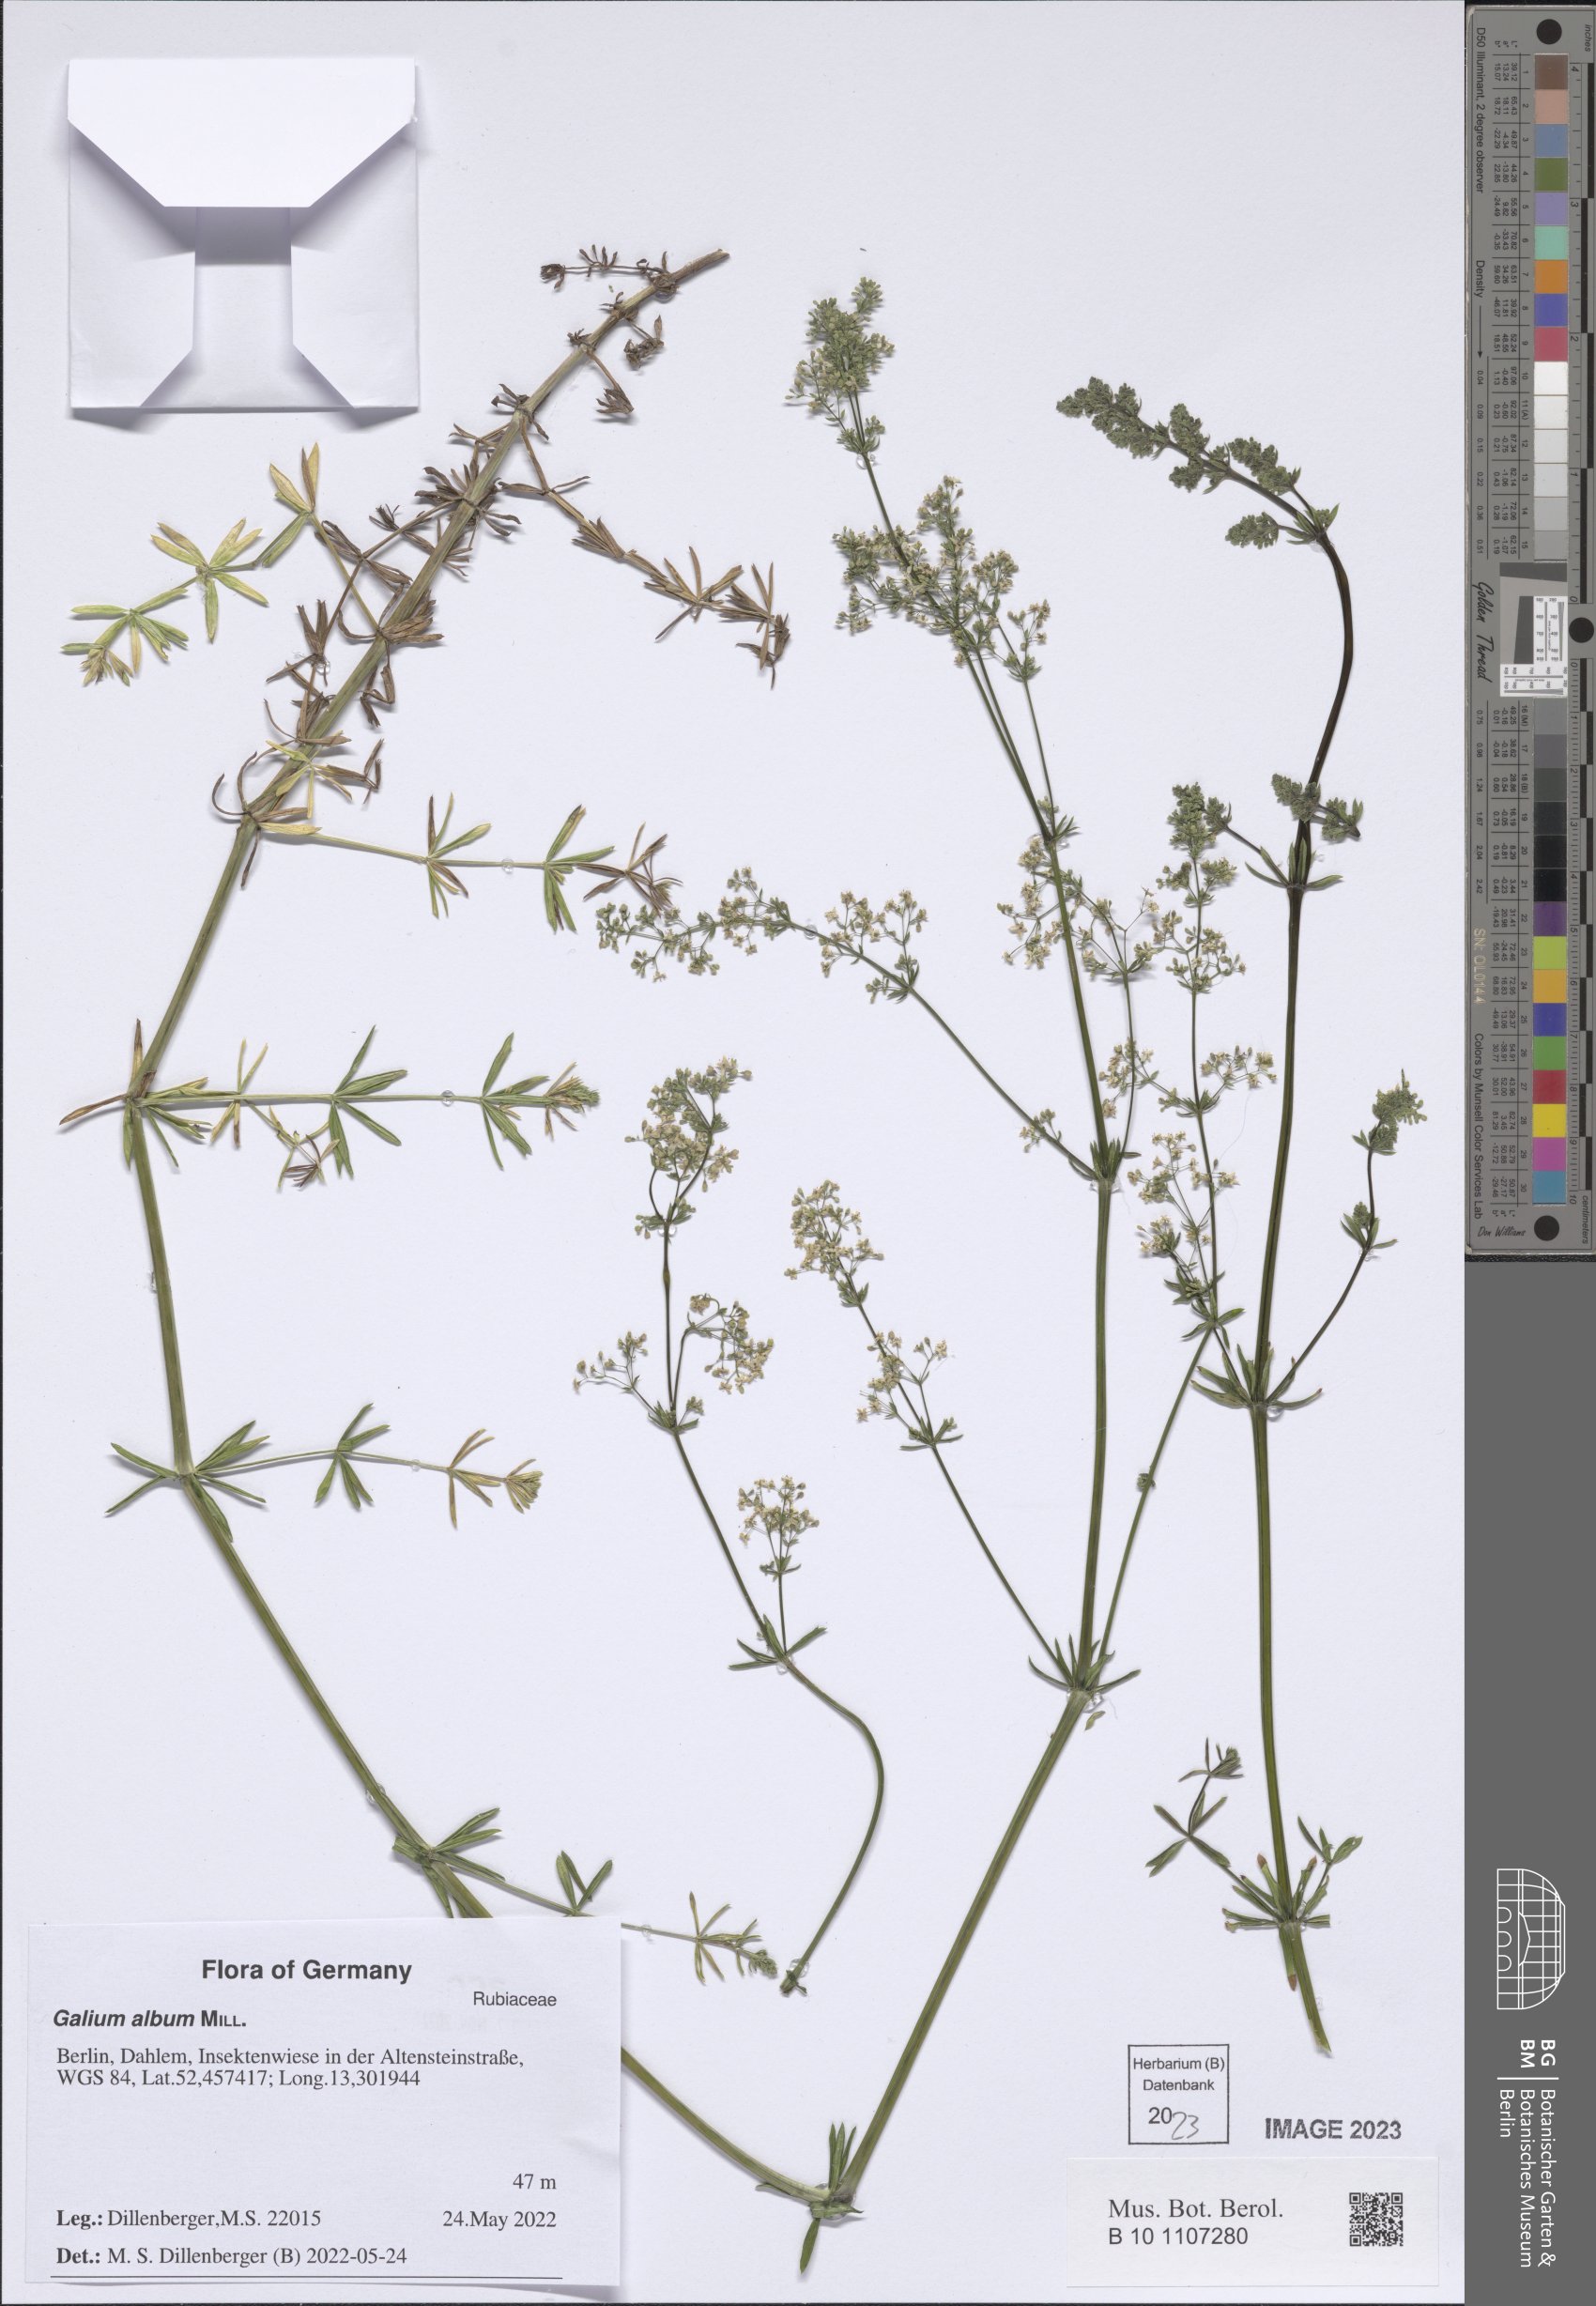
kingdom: Plantae
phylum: Tracheophyta
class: Magnoliopsida
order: Gentianales
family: Rubiaceae
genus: Galium
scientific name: Galium album
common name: White bedstraw
